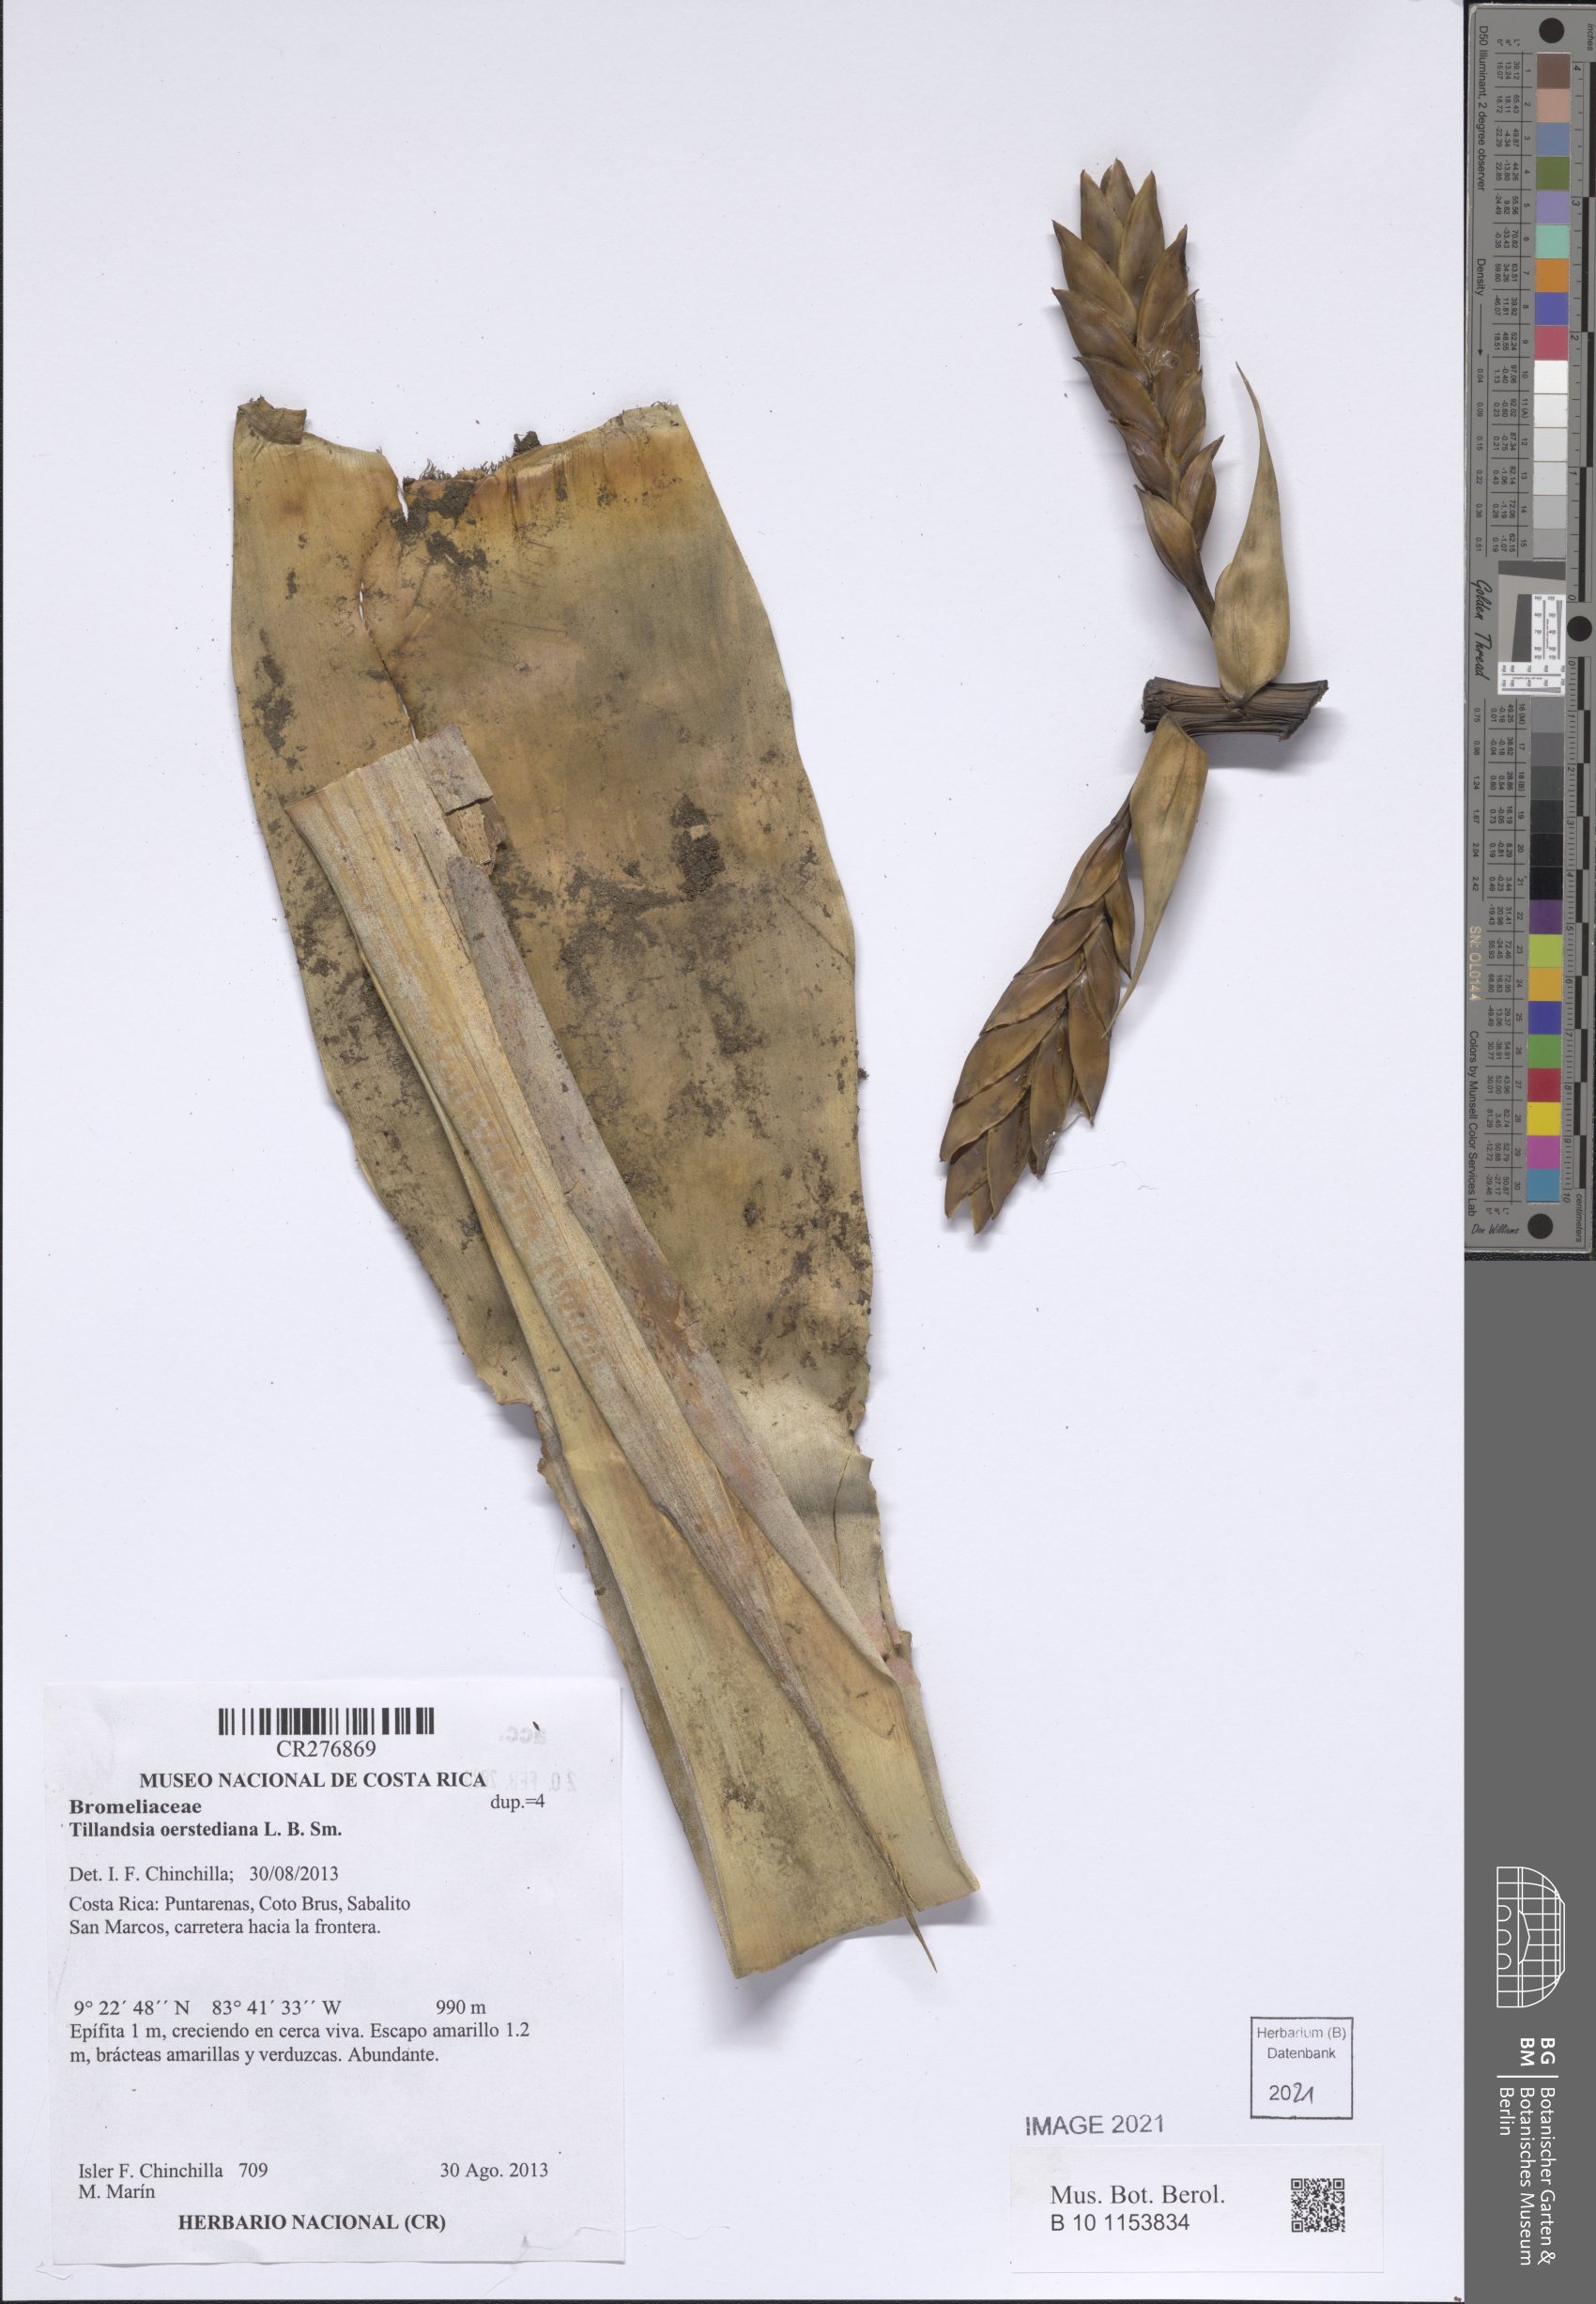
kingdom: Plantae
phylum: Tracheophyta
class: Liliopsida
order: Poales
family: Bromeliaceae
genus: Tillandsia
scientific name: Tillandsia oerstediana
